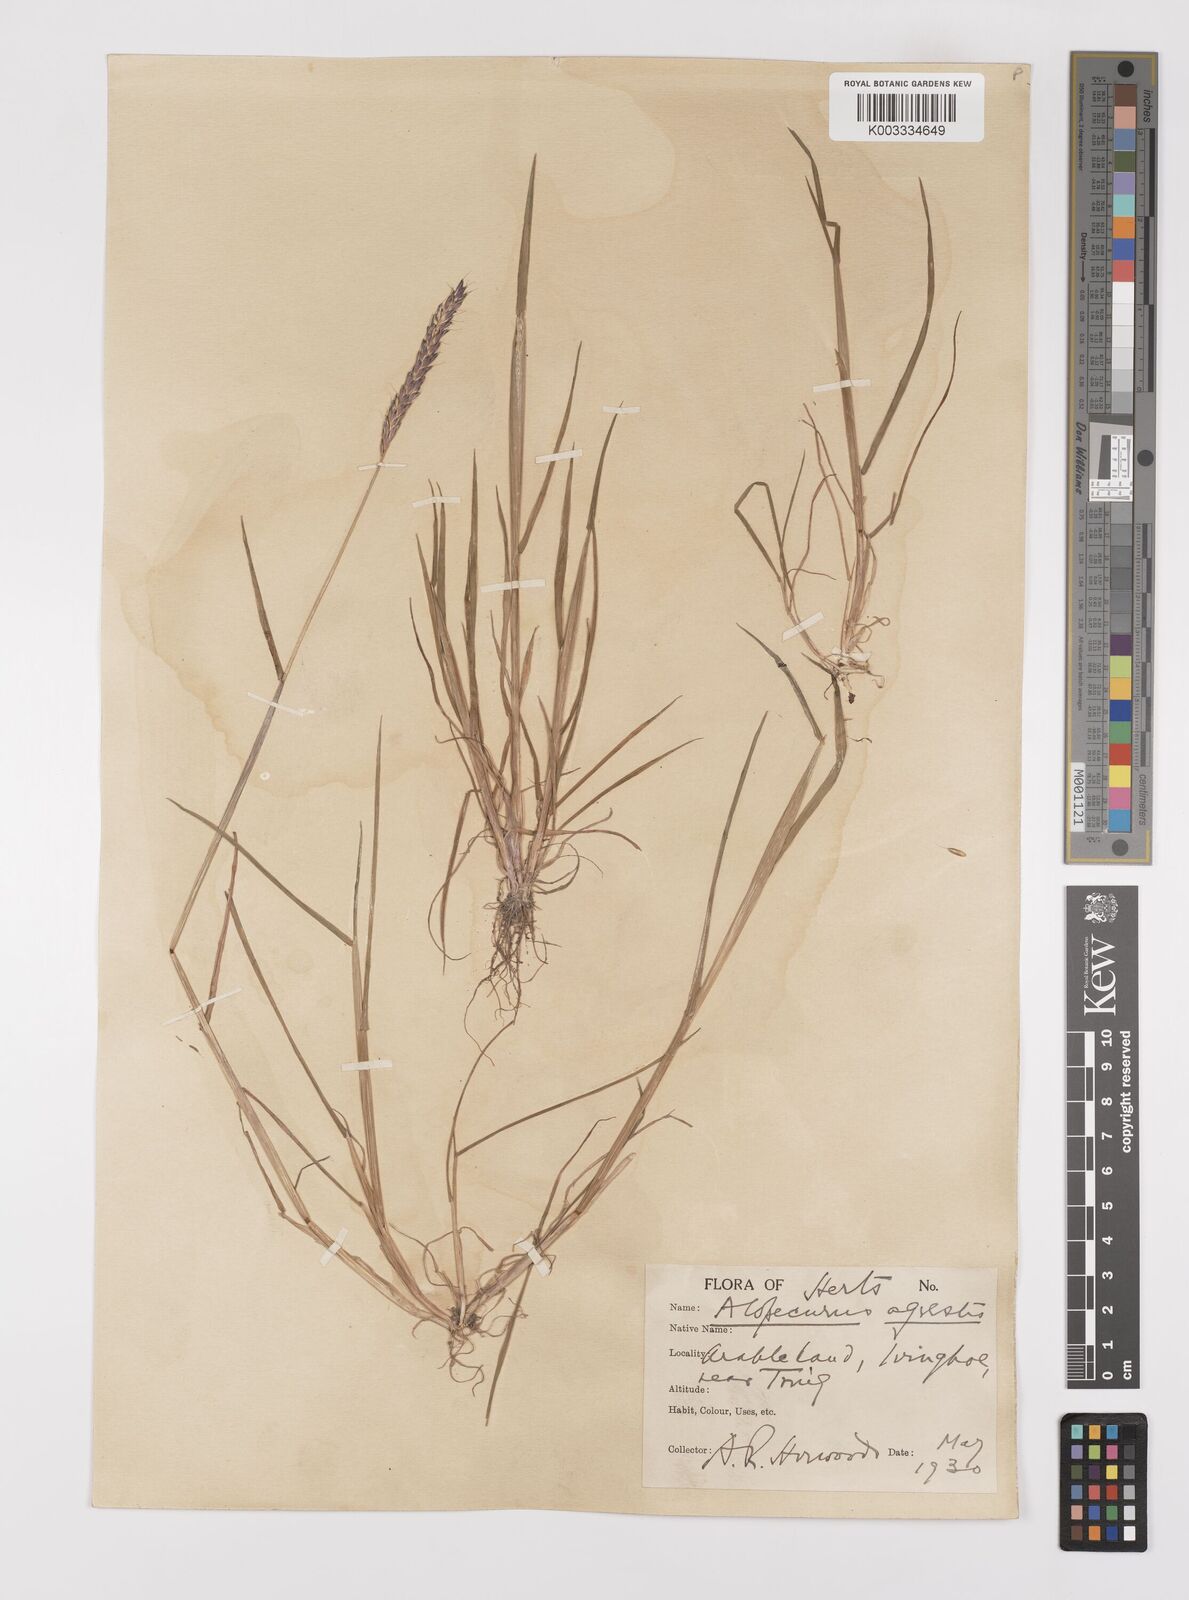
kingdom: Plantae
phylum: Tracheophyta
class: Liliopsida
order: Poales
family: Poaceae
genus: Alopecurus
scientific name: Alopecurus myosuroides
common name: Black-grass
